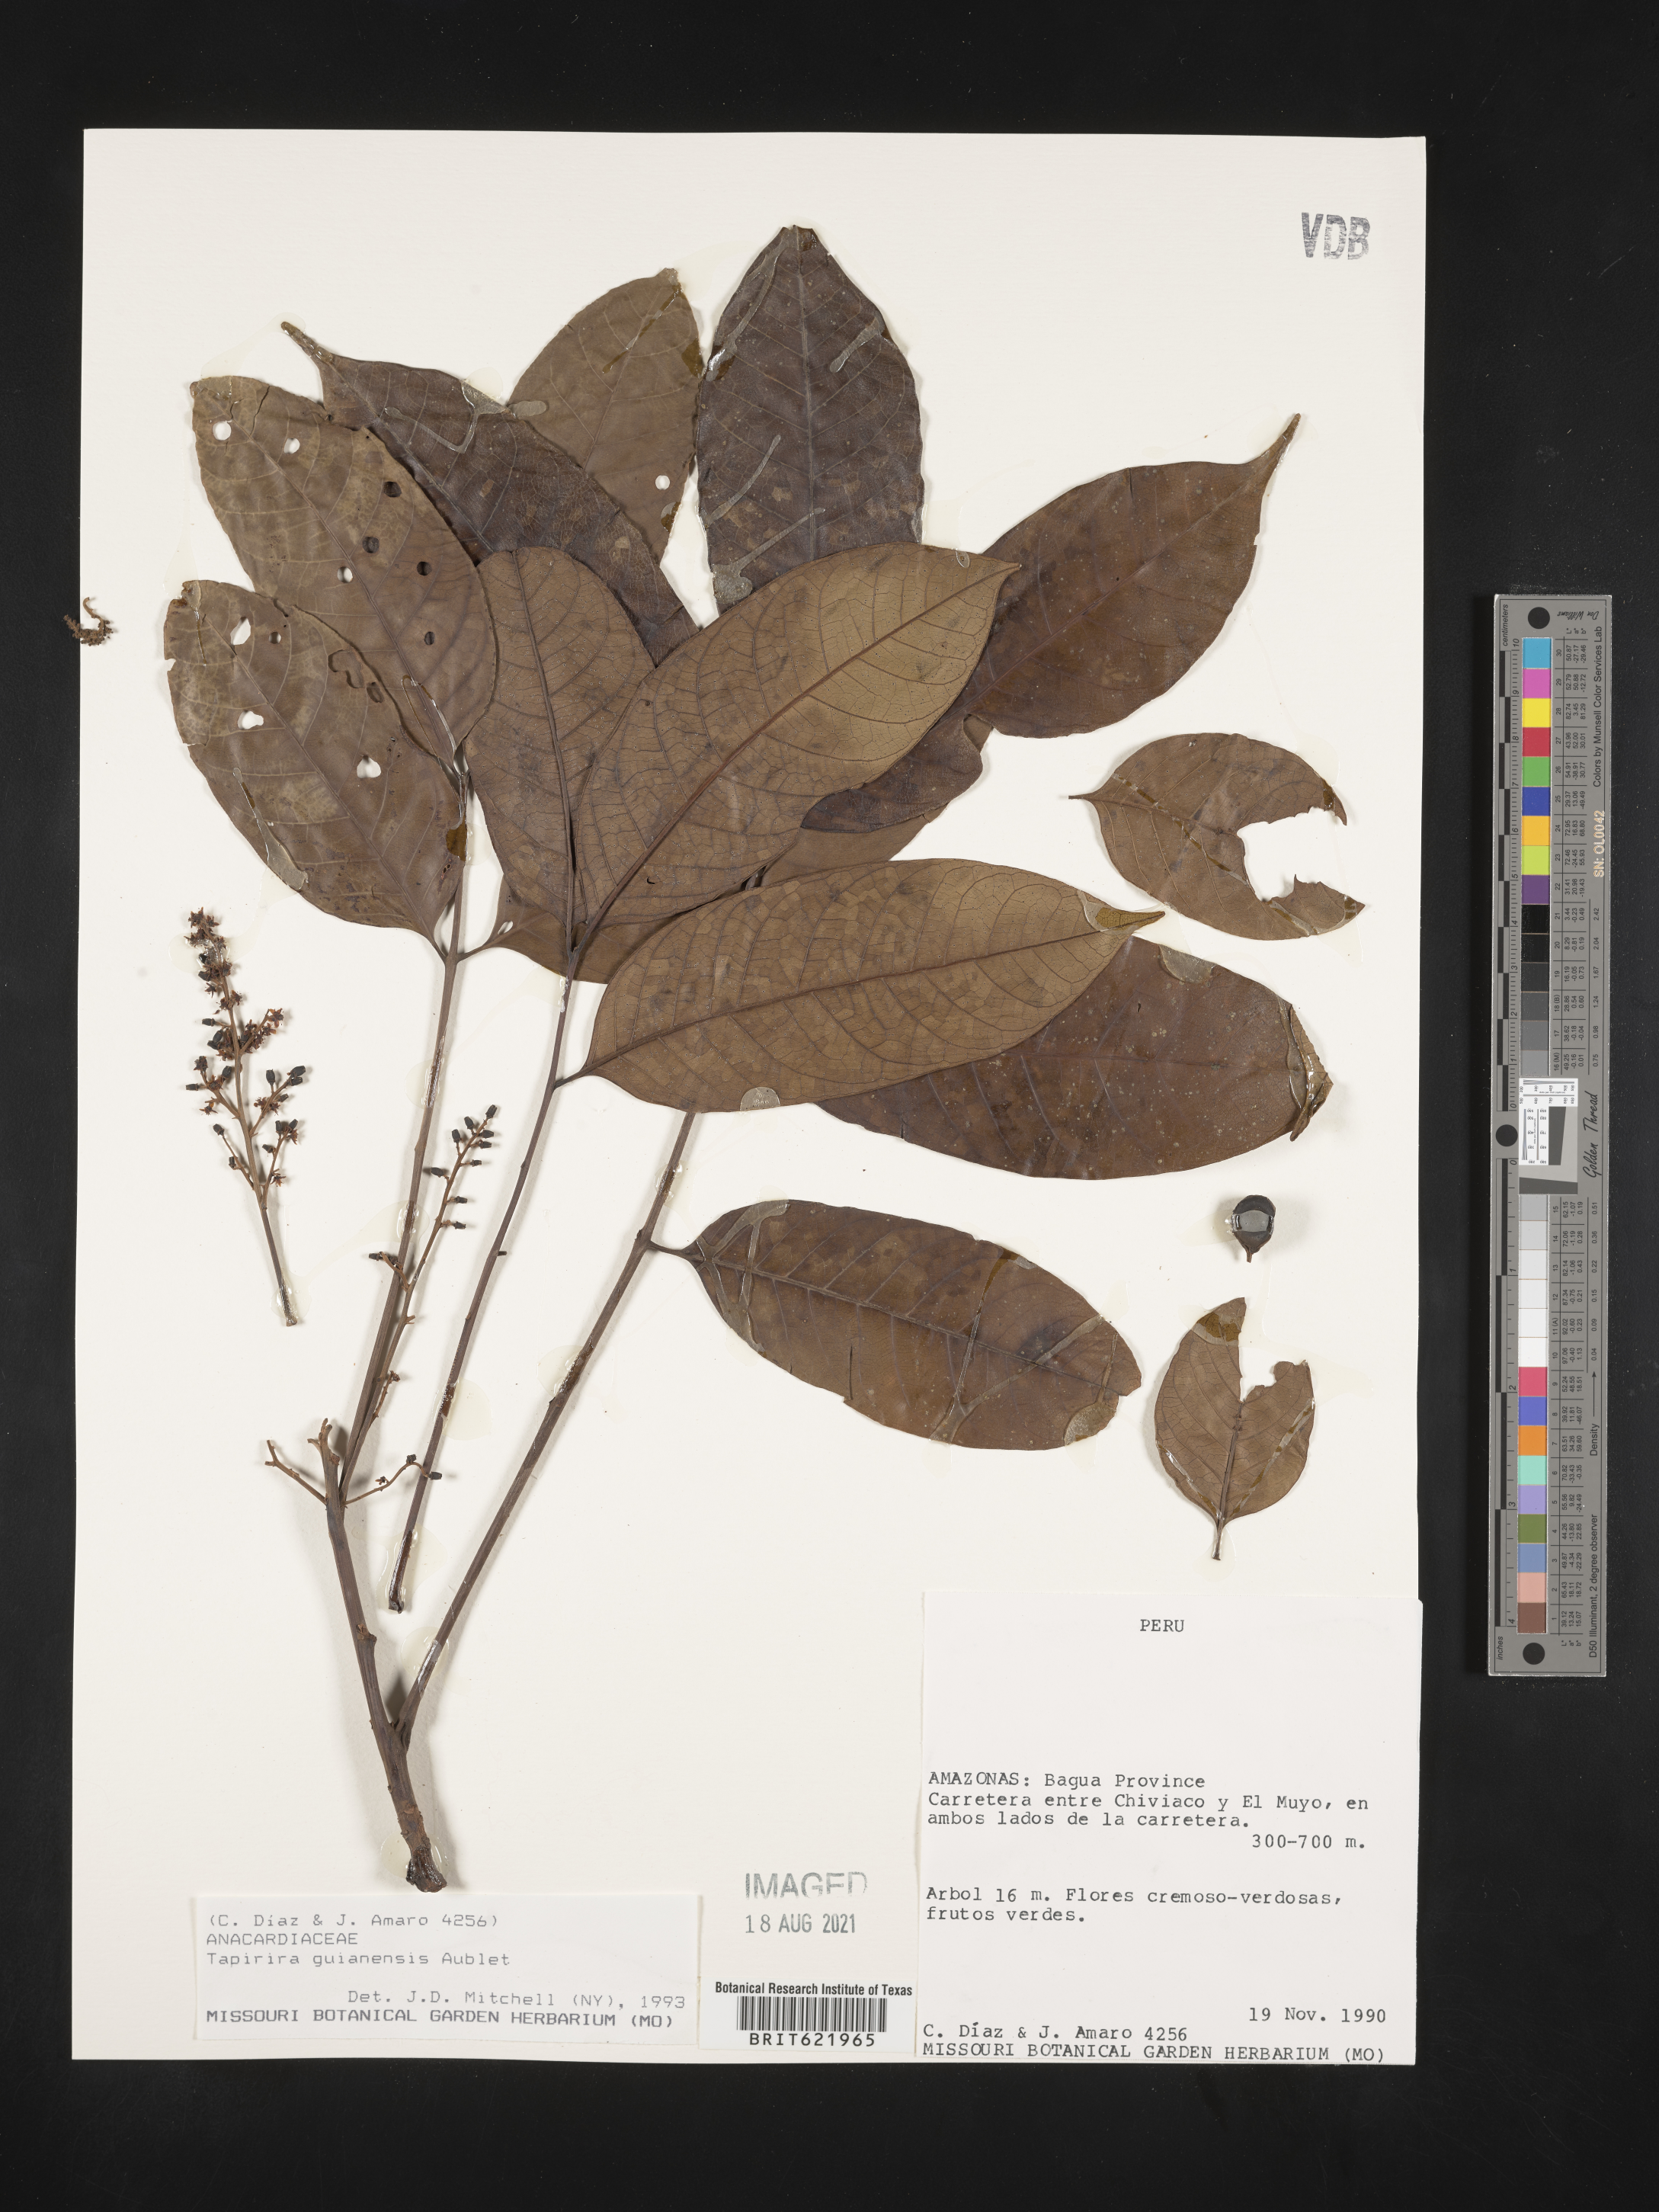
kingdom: Plantae
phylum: Tracheophyta
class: Magnoliopsida
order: Sapindales
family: Anacardiaceae
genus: Tapirira
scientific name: Tapirira guianensis
